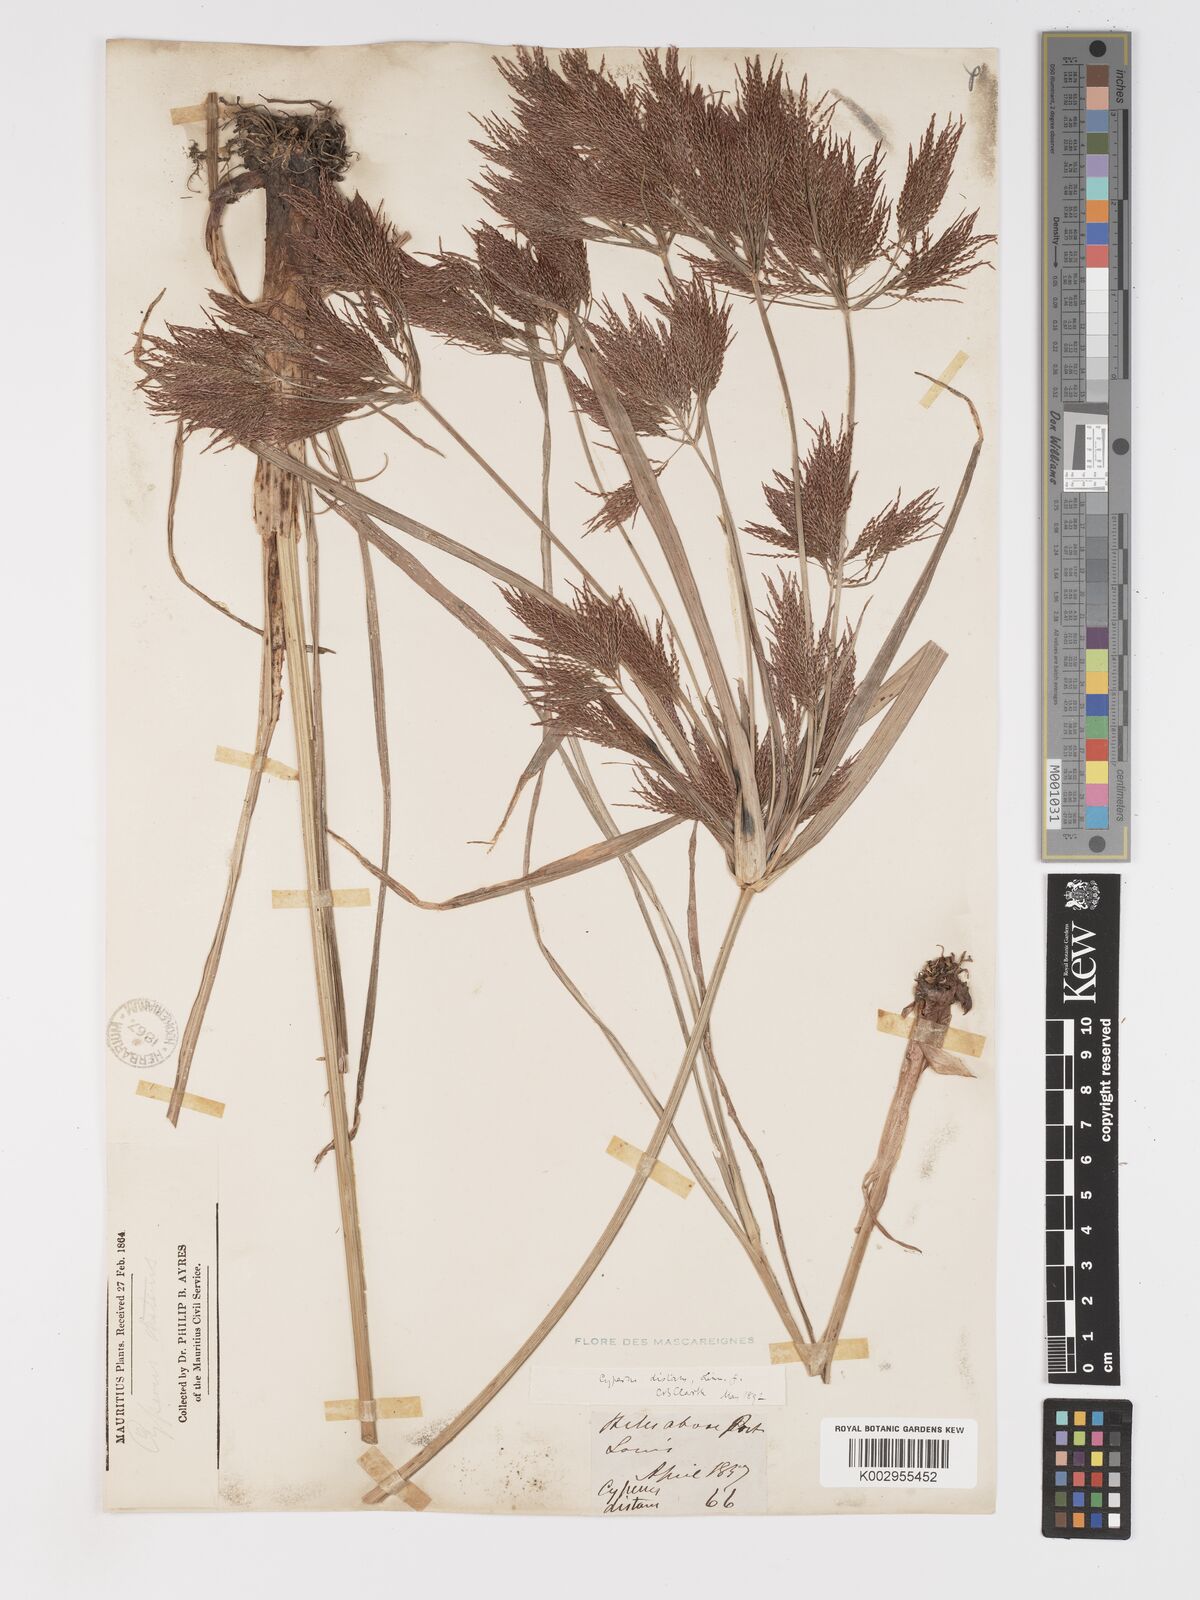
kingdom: Plantae
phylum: Tracheophyta
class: Liliopsida
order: Poales
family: Cyperaceae
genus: Cyperus
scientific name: Cyperus distans
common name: Slender cyperus
